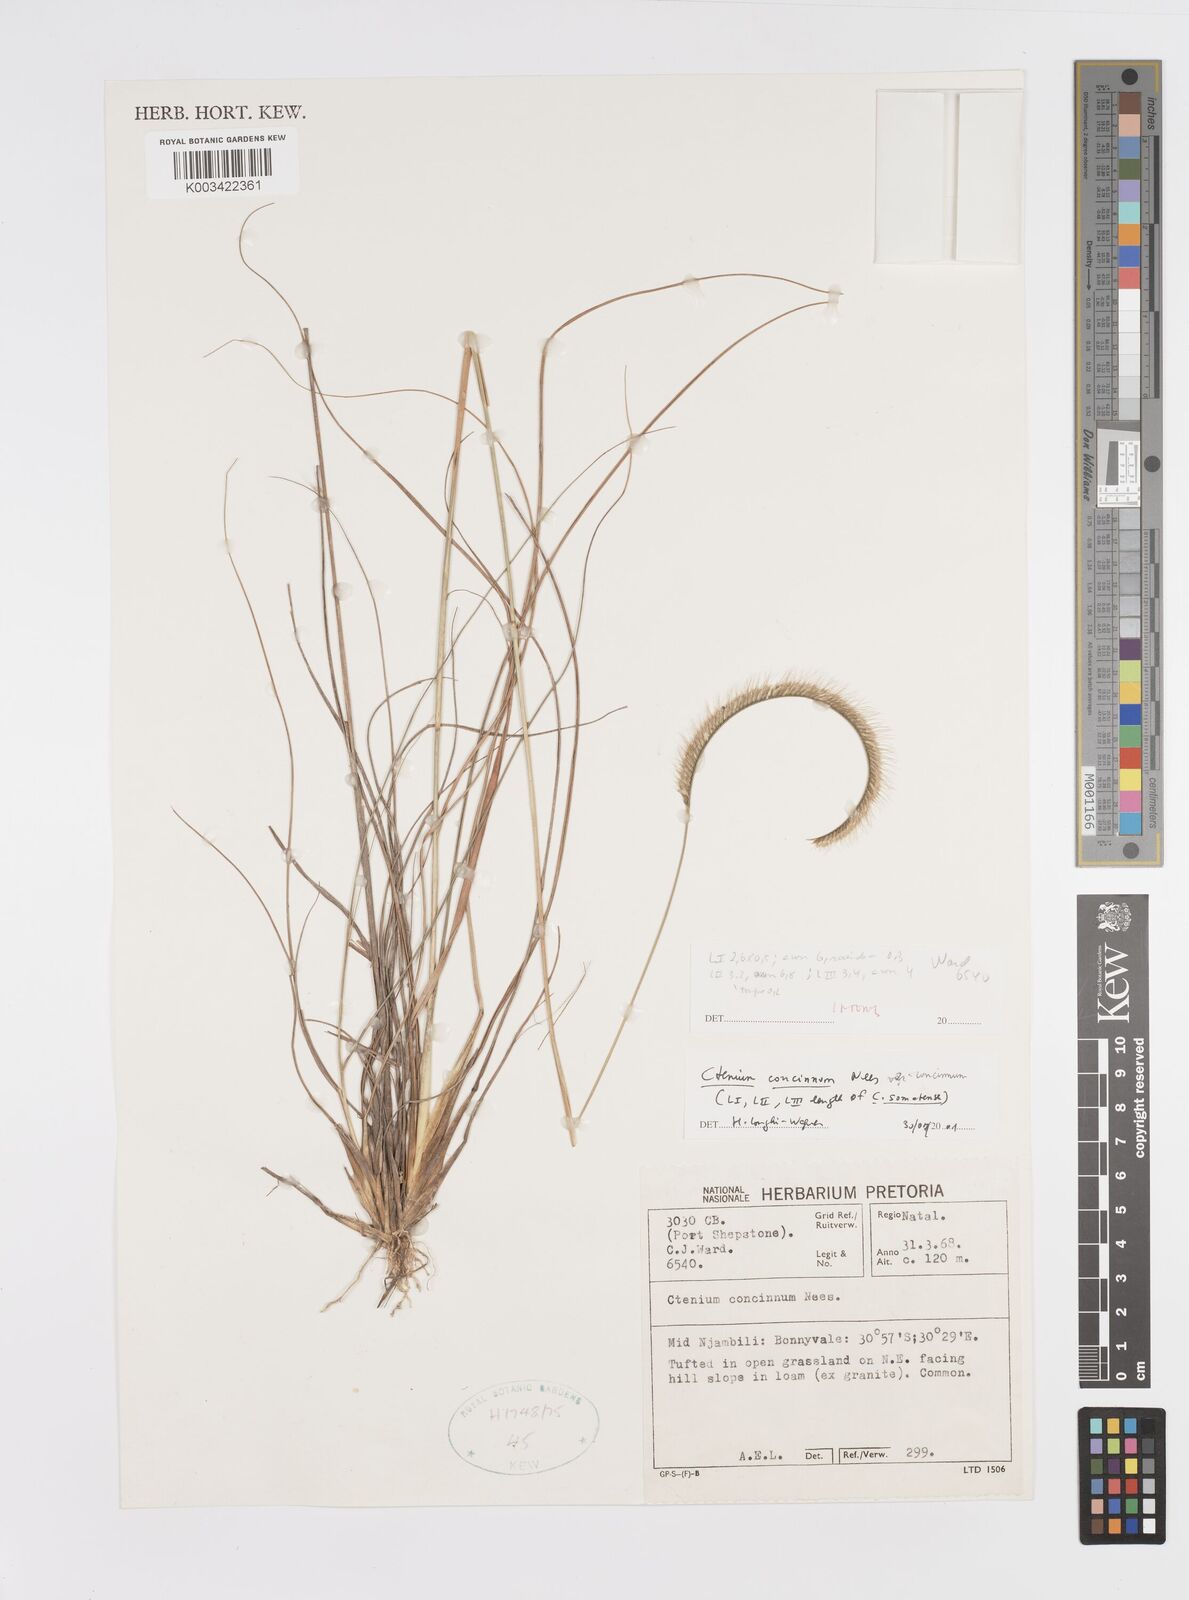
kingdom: Plantae
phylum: Tracheophyta
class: Liliopsida
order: Poales
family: Poaceae
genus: Ctenium
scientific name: Ctenium concinnum
